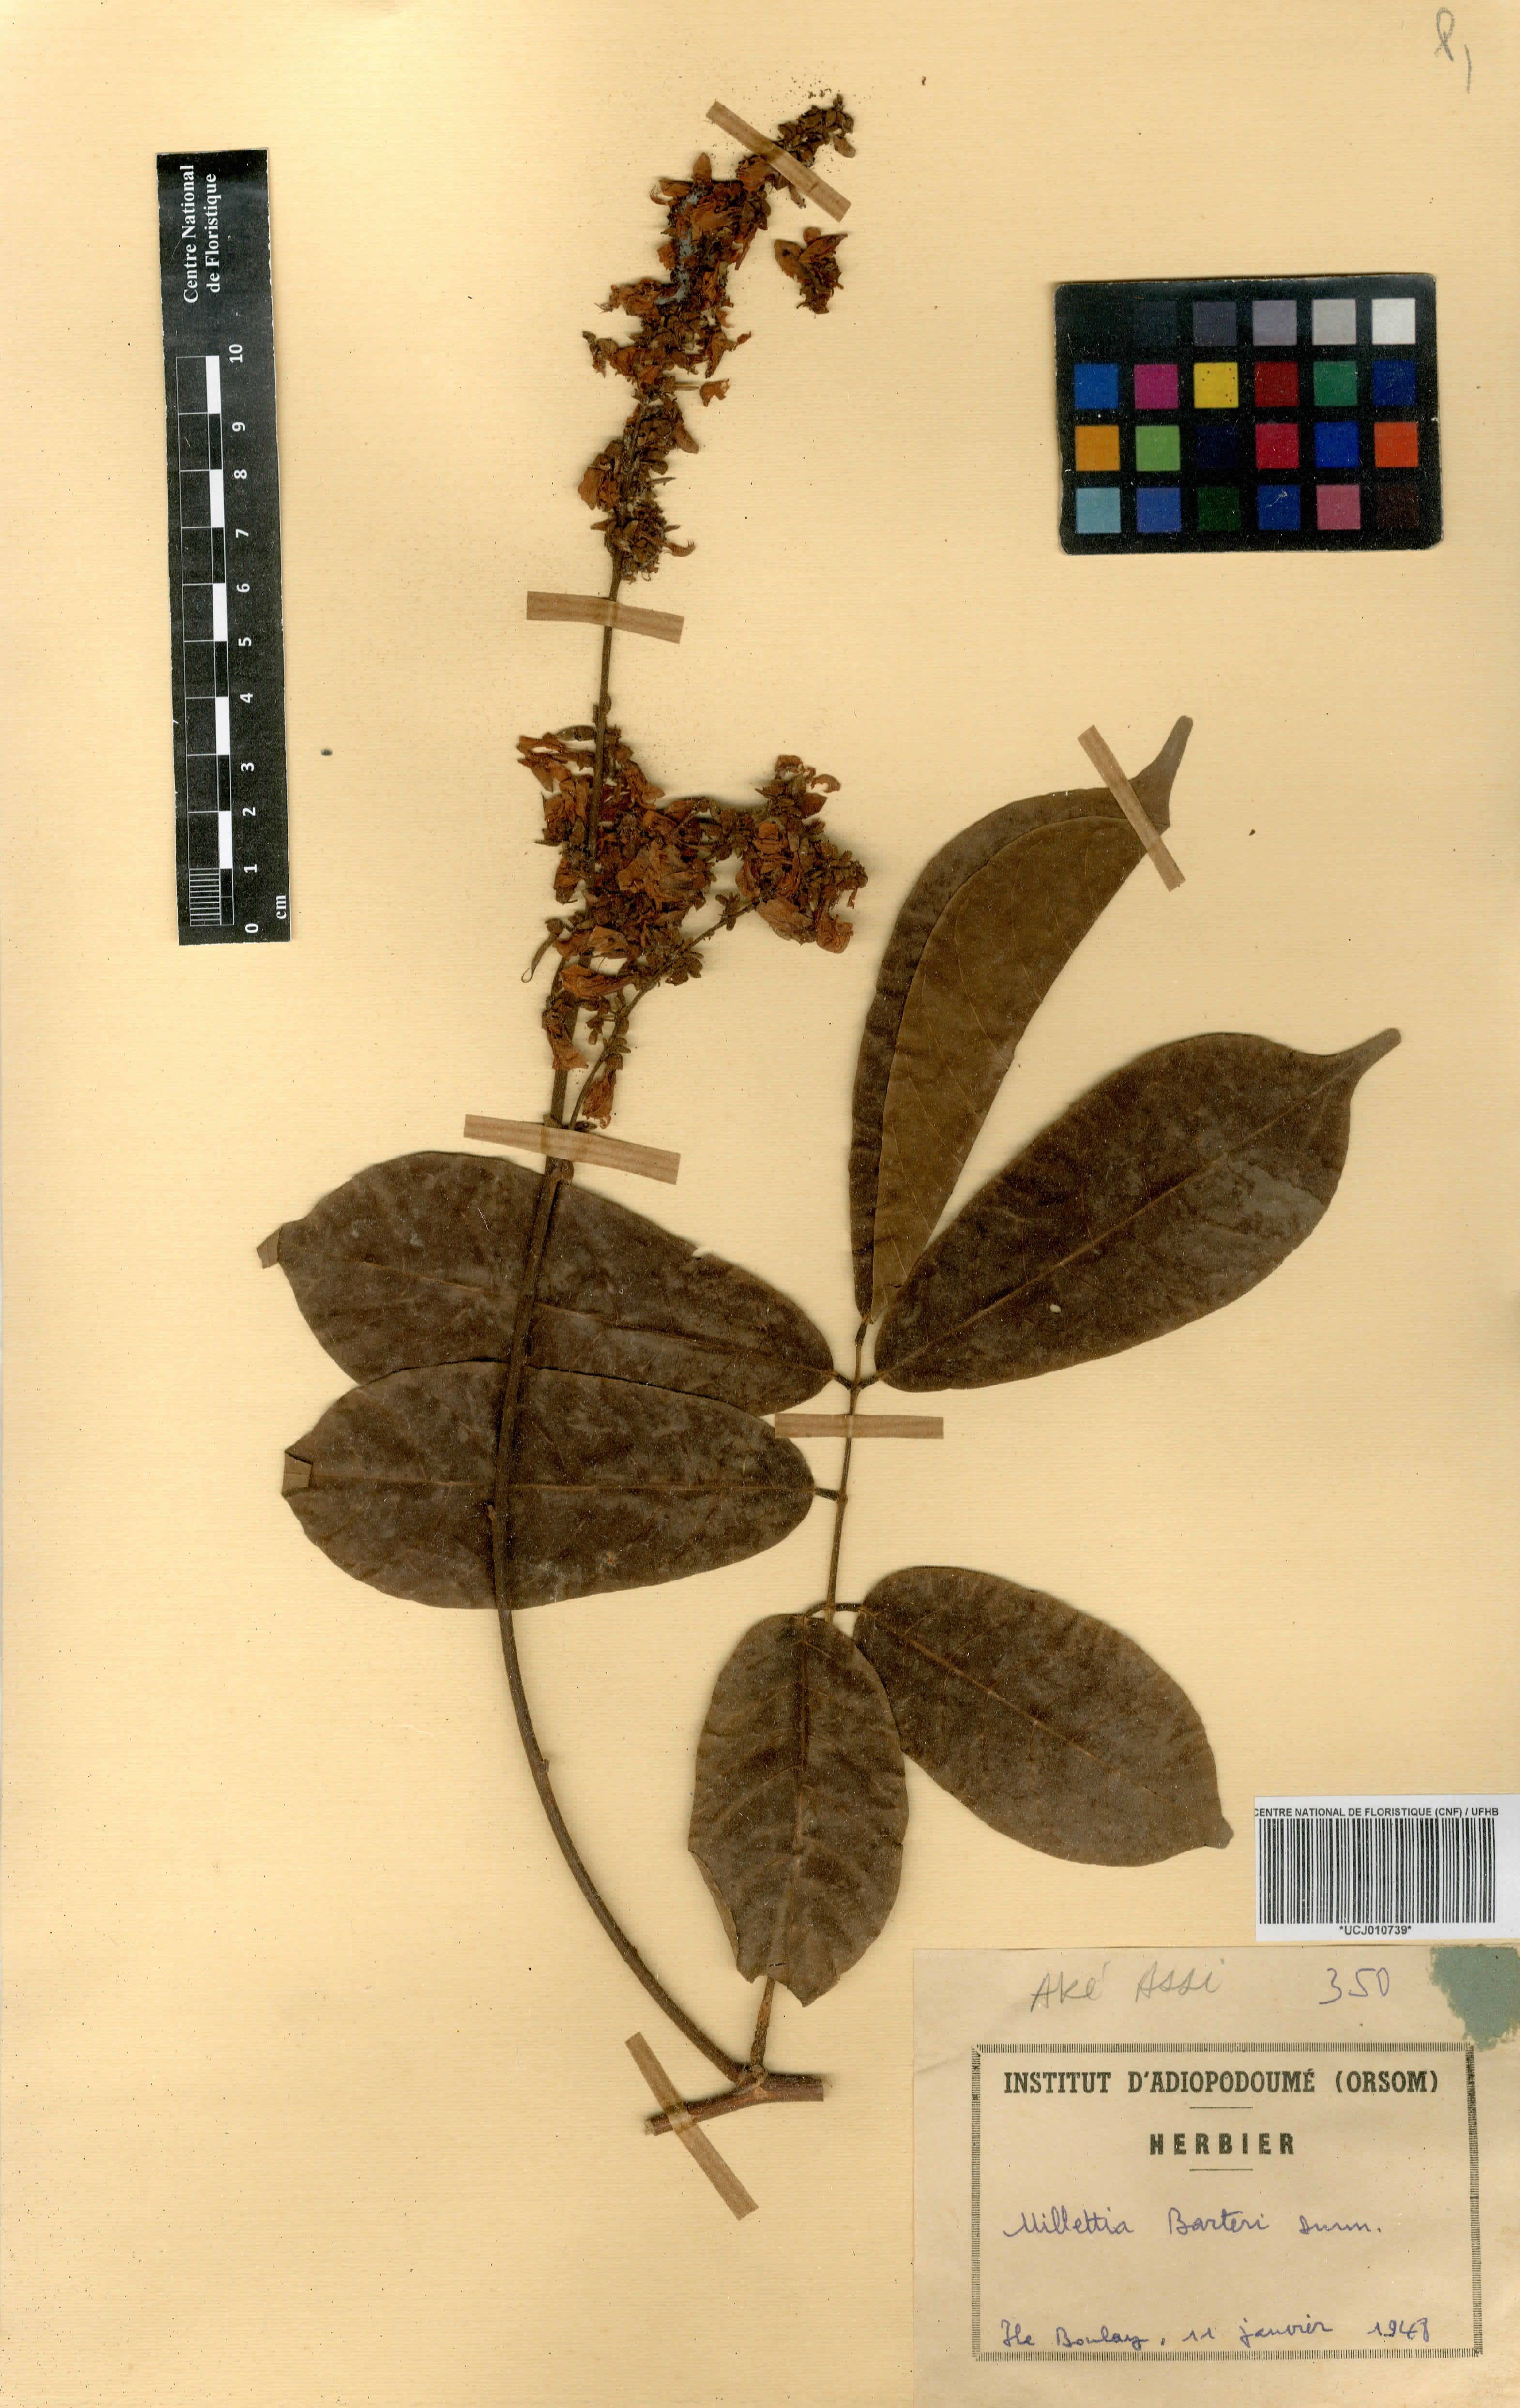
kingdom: Plantae
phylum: Tracheophyta
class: Magnoliopsida
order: Fabales
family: Fabaceae
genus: Millettia
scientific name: Millettia barteri
